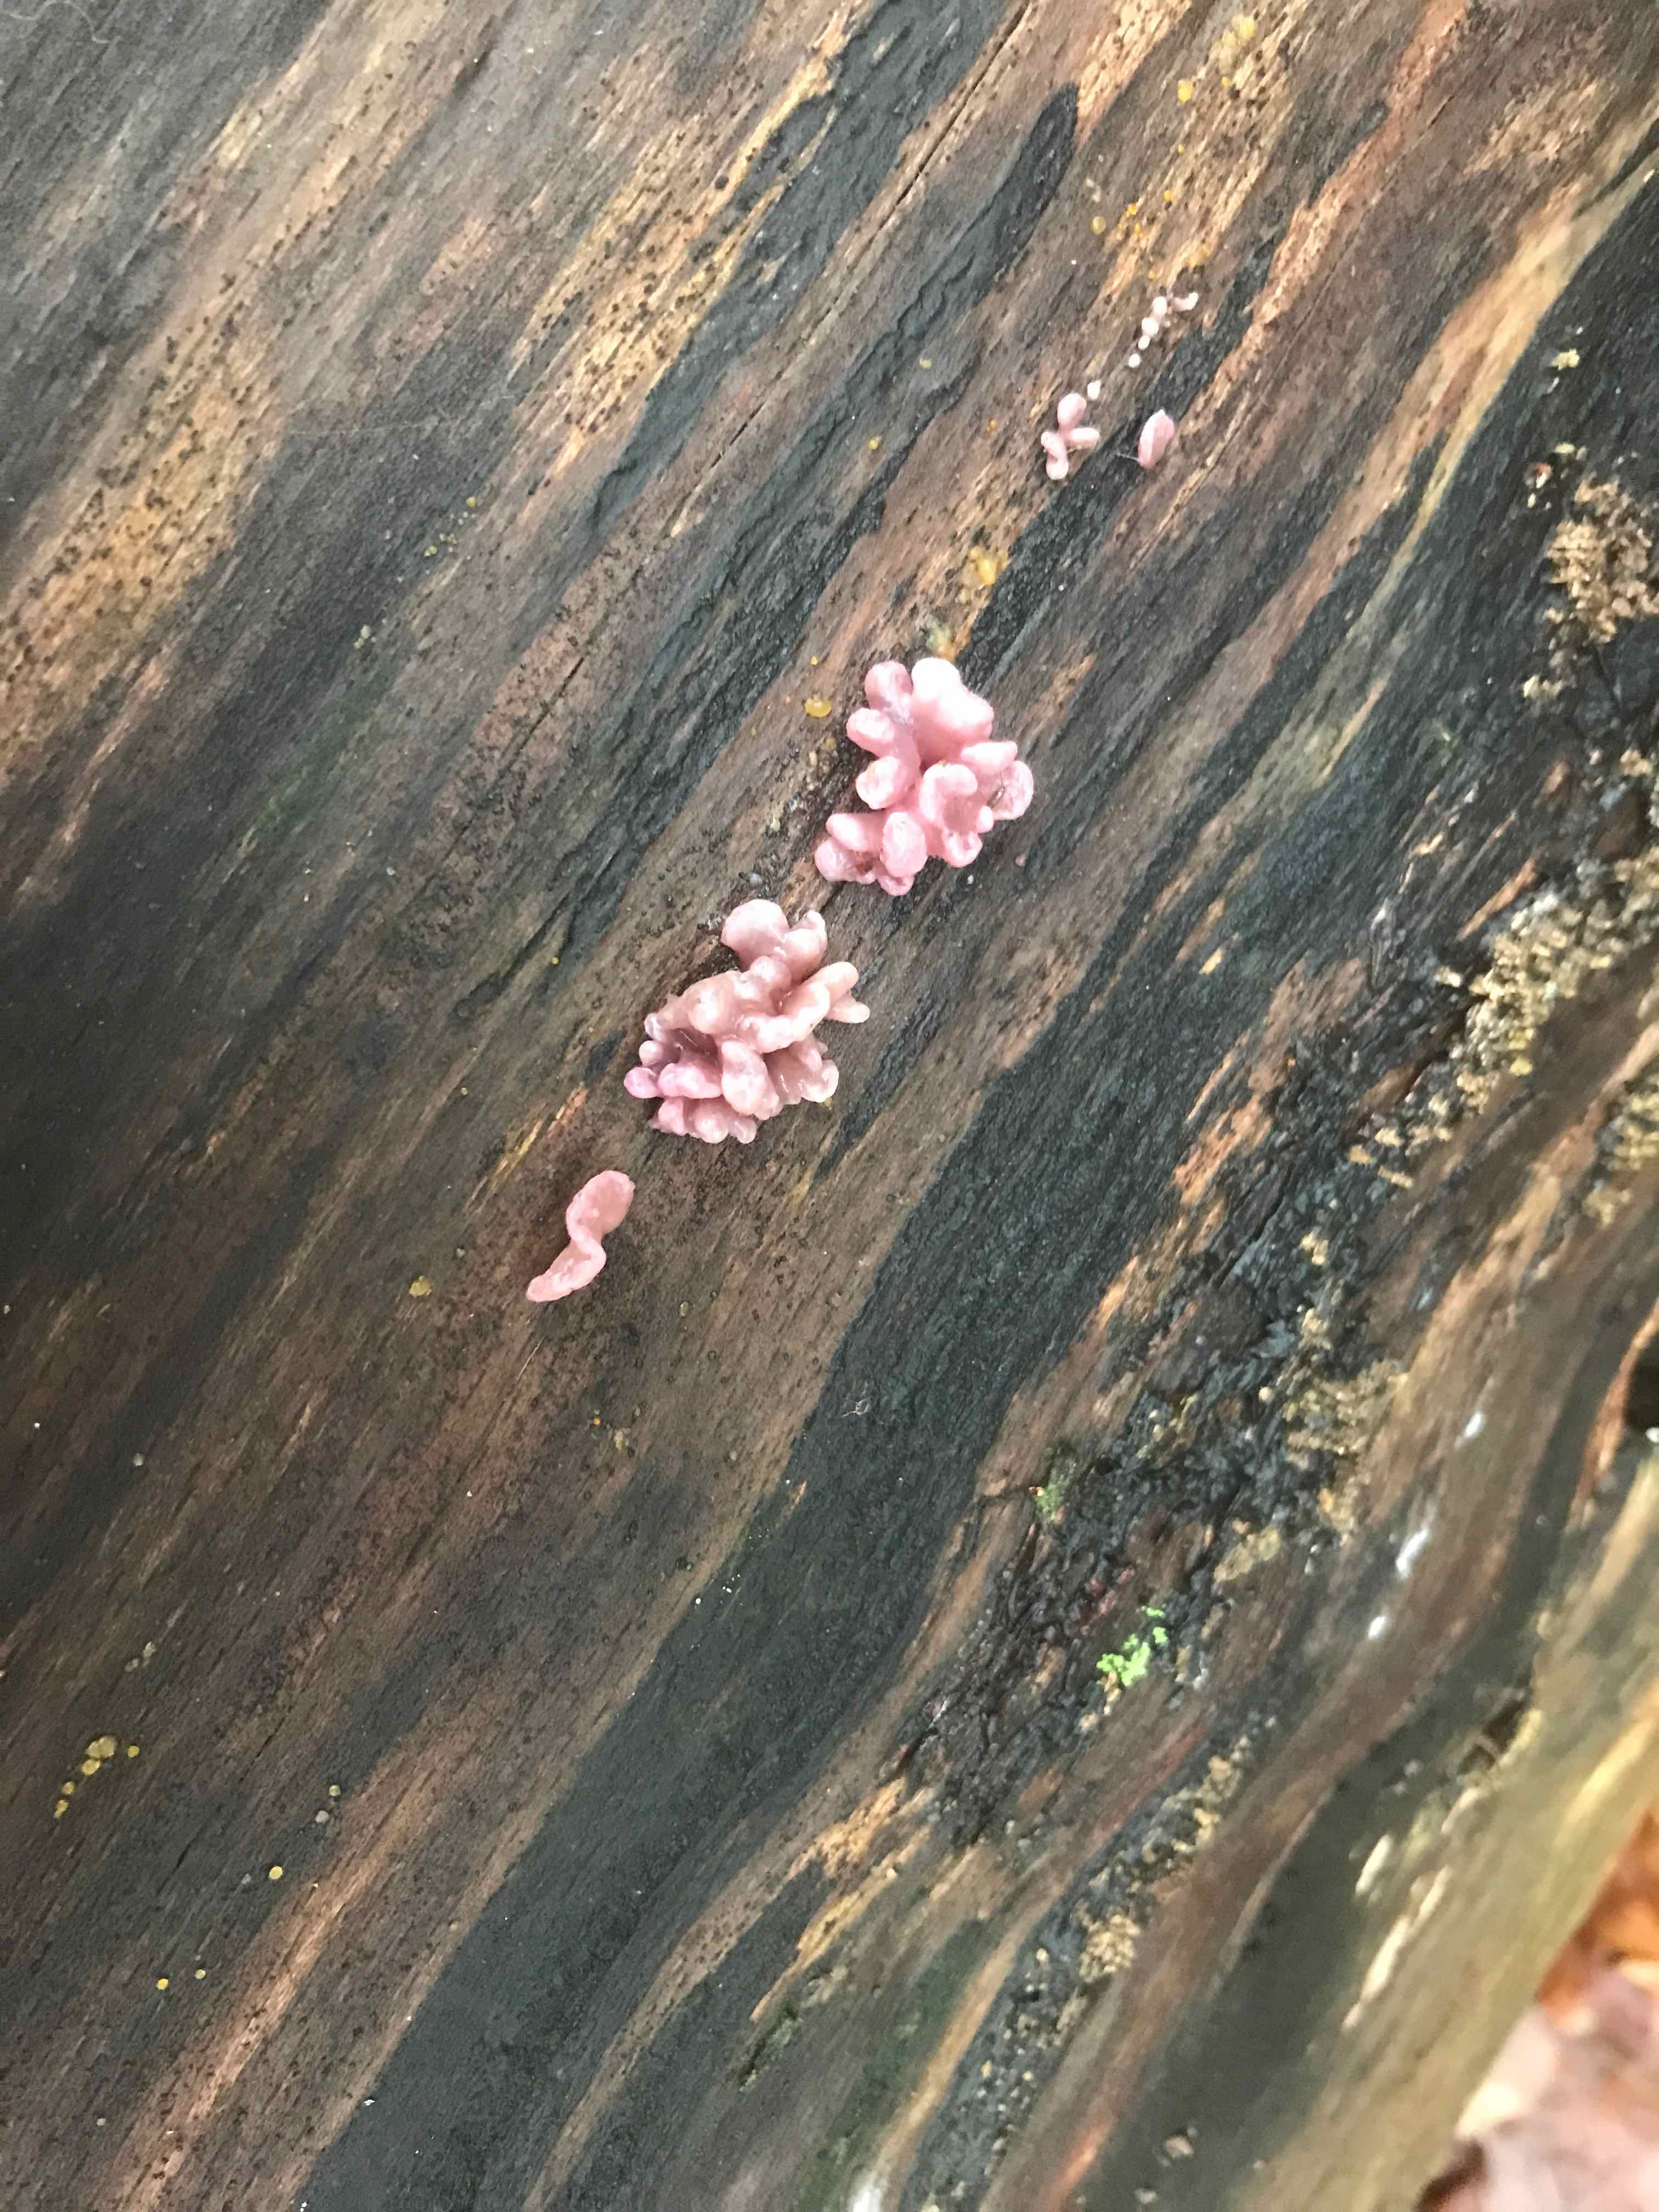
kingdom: Fungi
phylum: Ascomycota
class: Leotiomycetes
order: Helotiales
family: Gelatinodiscaceae
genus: Ascocoryne
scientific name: Ascocoryne sarcoides
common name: rødlilla sejskive
